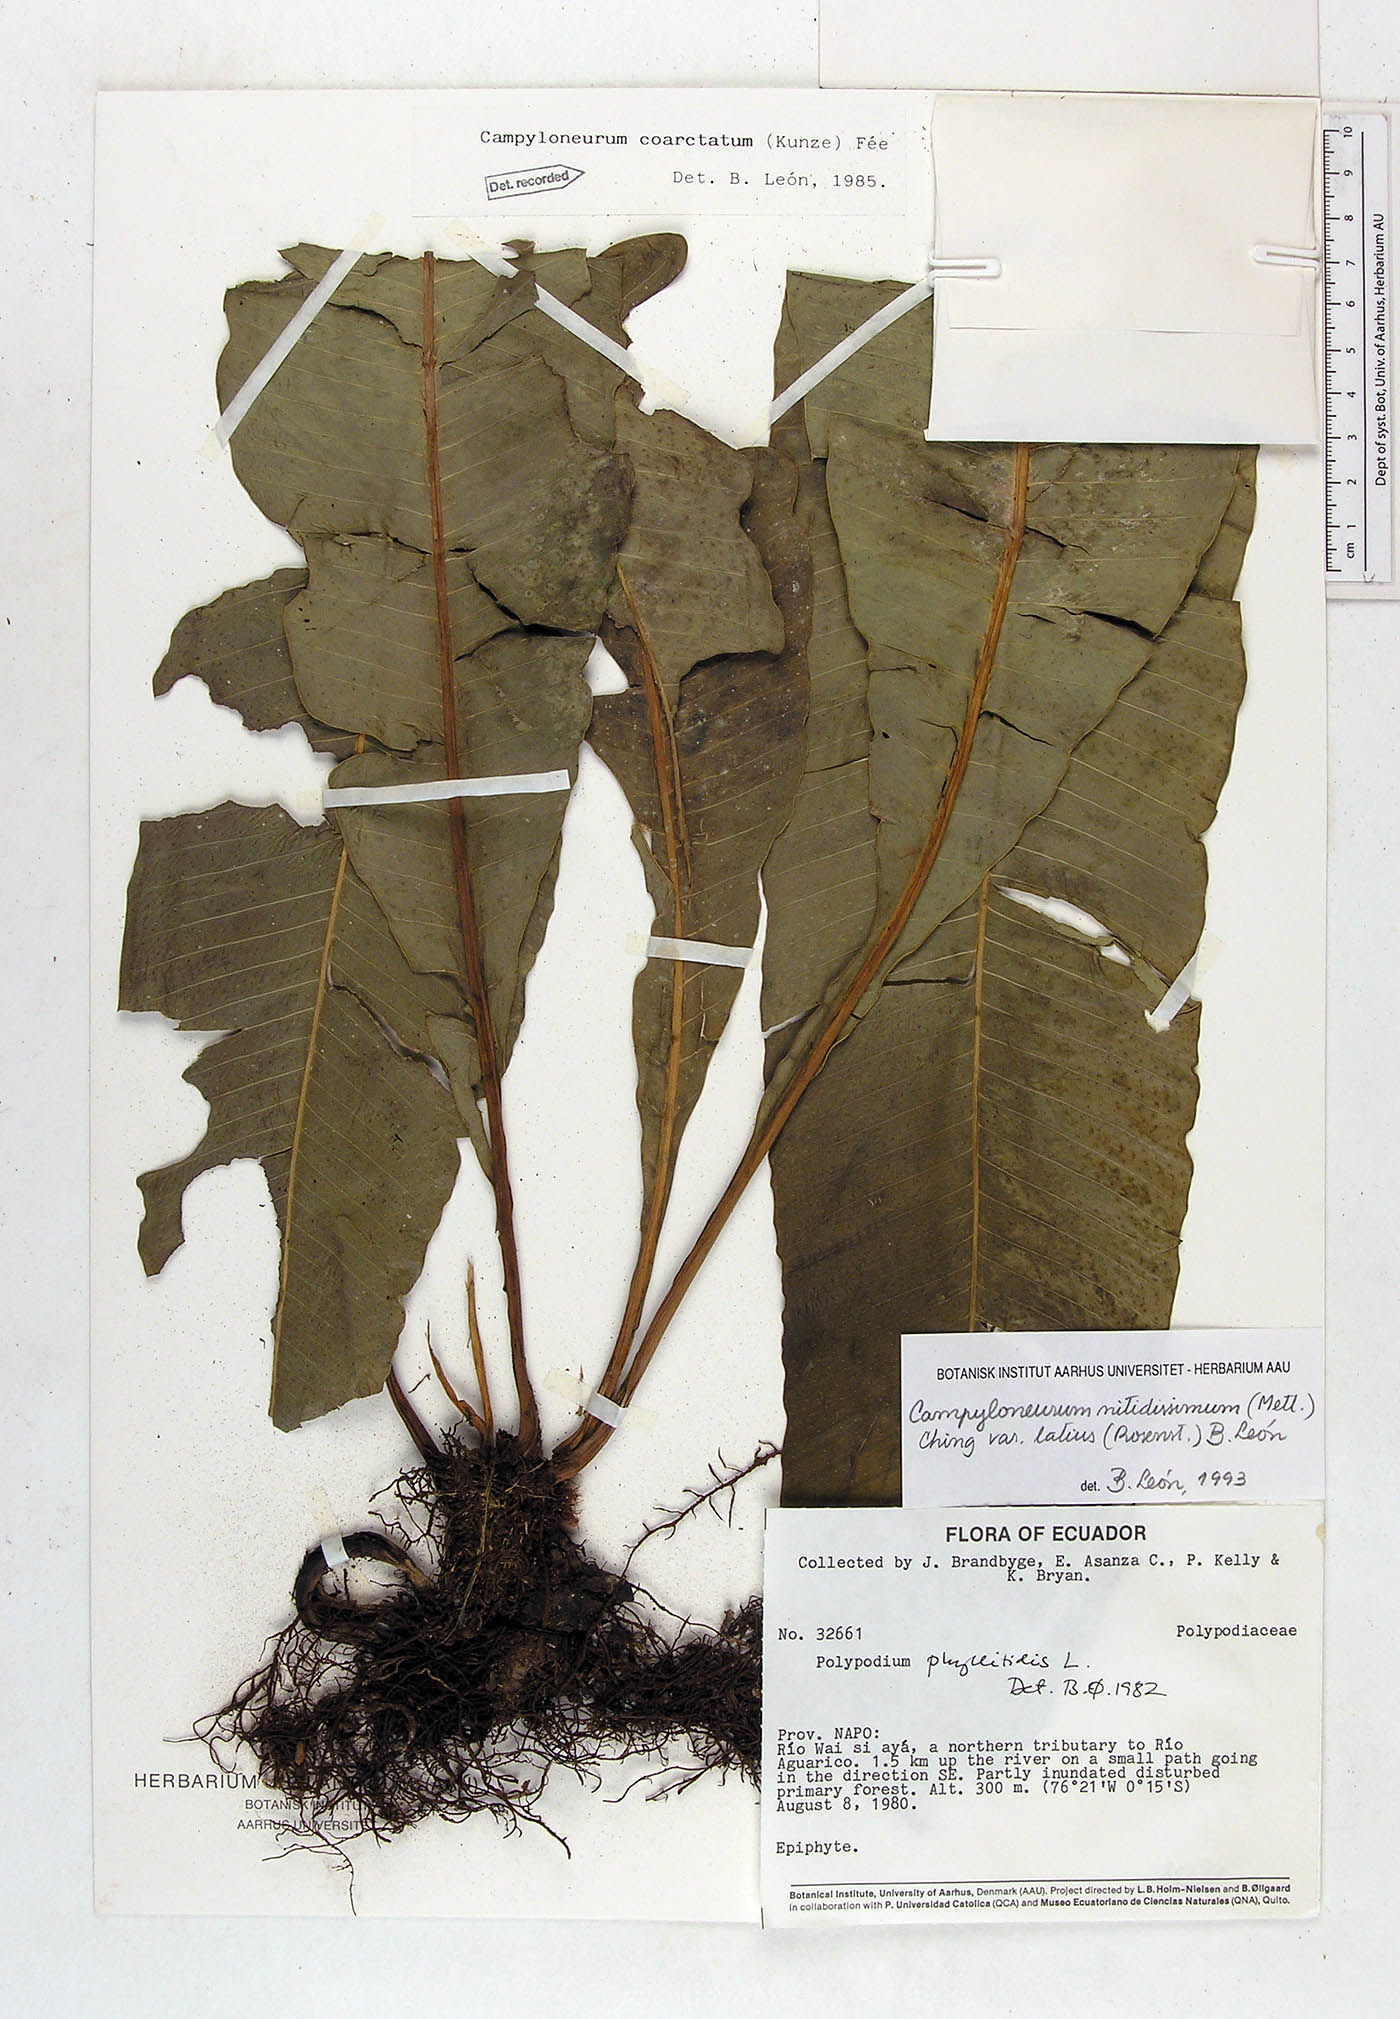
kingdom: Plantae
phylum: Tracheophyta
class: Polypodiopsida
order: Polypodiales
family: Polypodiaceae
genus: Campyloneurum
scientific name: Campyloneurum nitidissimum
